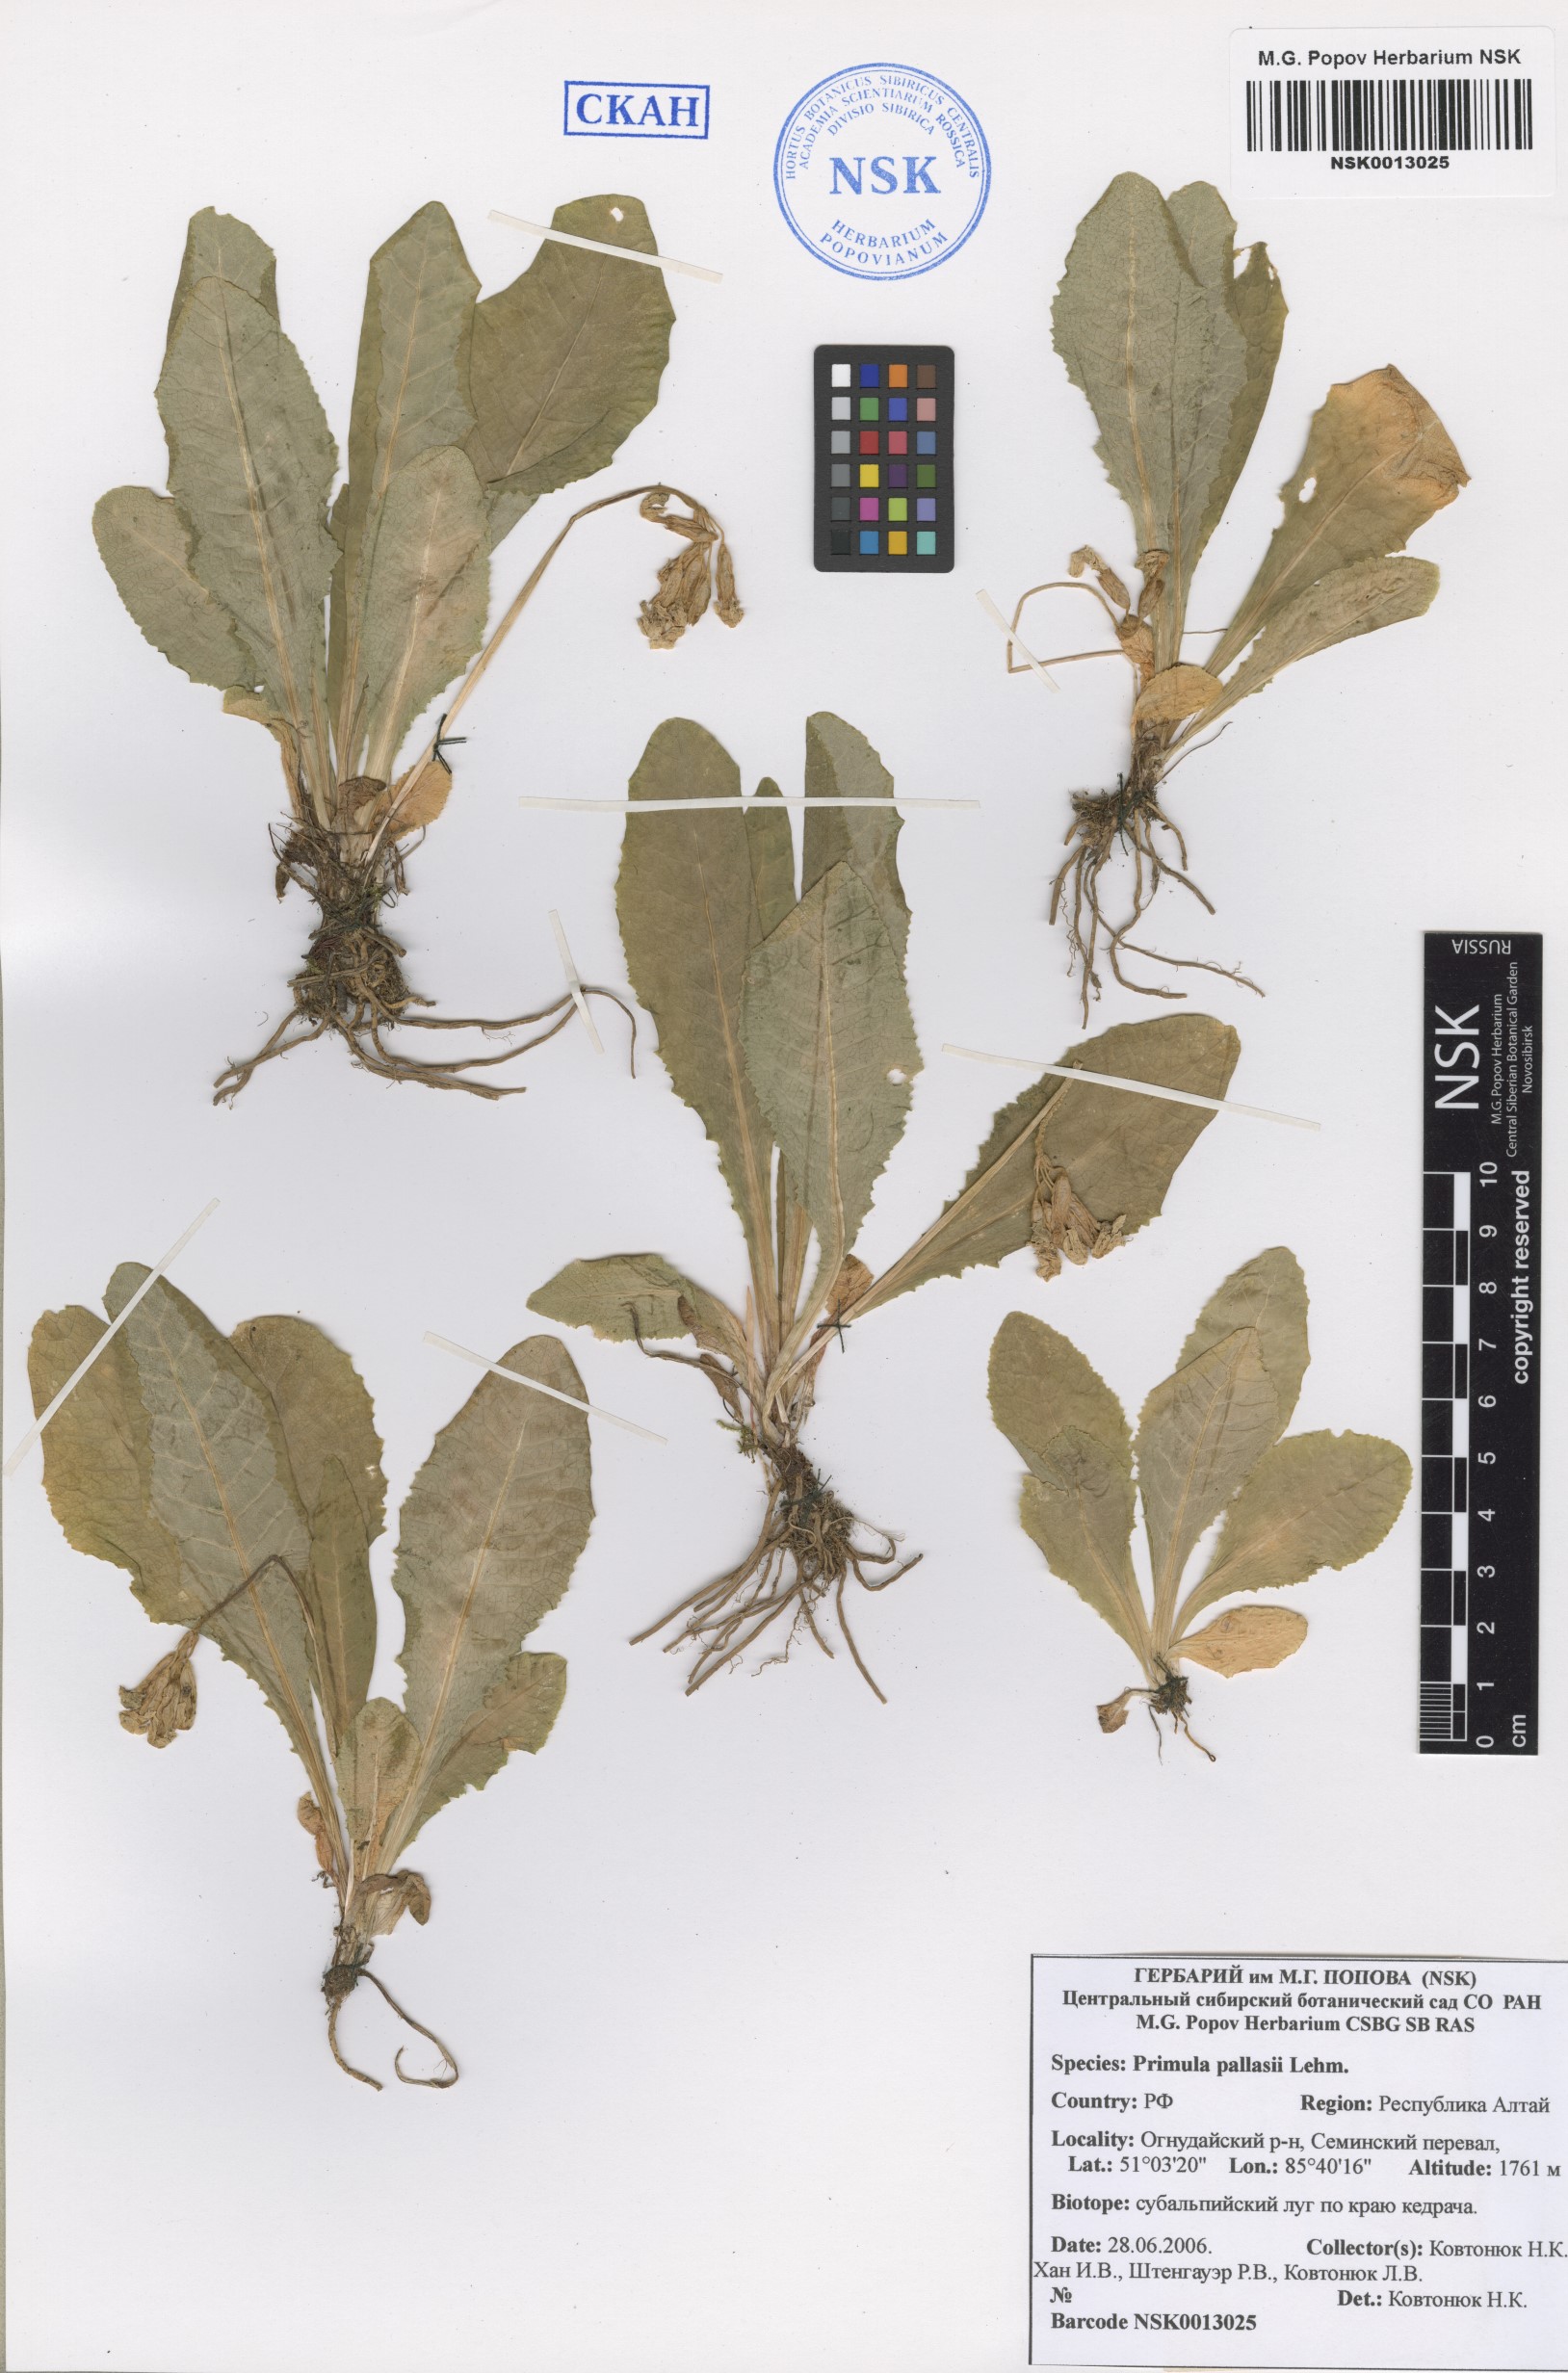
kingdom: Plantae
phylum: Tracheophyta
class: Magnoliopsida
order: Ericales
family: Primulaceae
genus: Primula
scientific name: Primula elatior
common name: Oxlip
